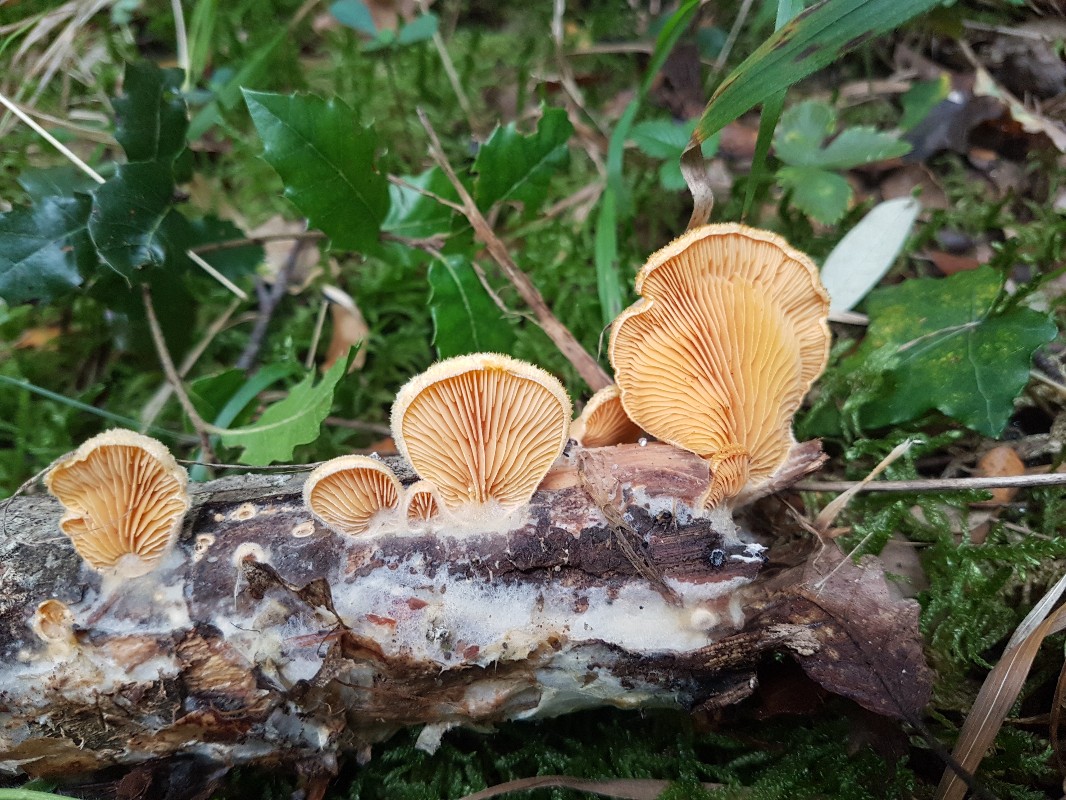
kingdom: Fungi
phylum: Basidiomycota
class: Agaricomycetes
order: Agaricales
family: Phyllotopsidaceae
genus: Phyllotopsis
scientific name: Phyllotopsis nidulans
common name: okkerblad
